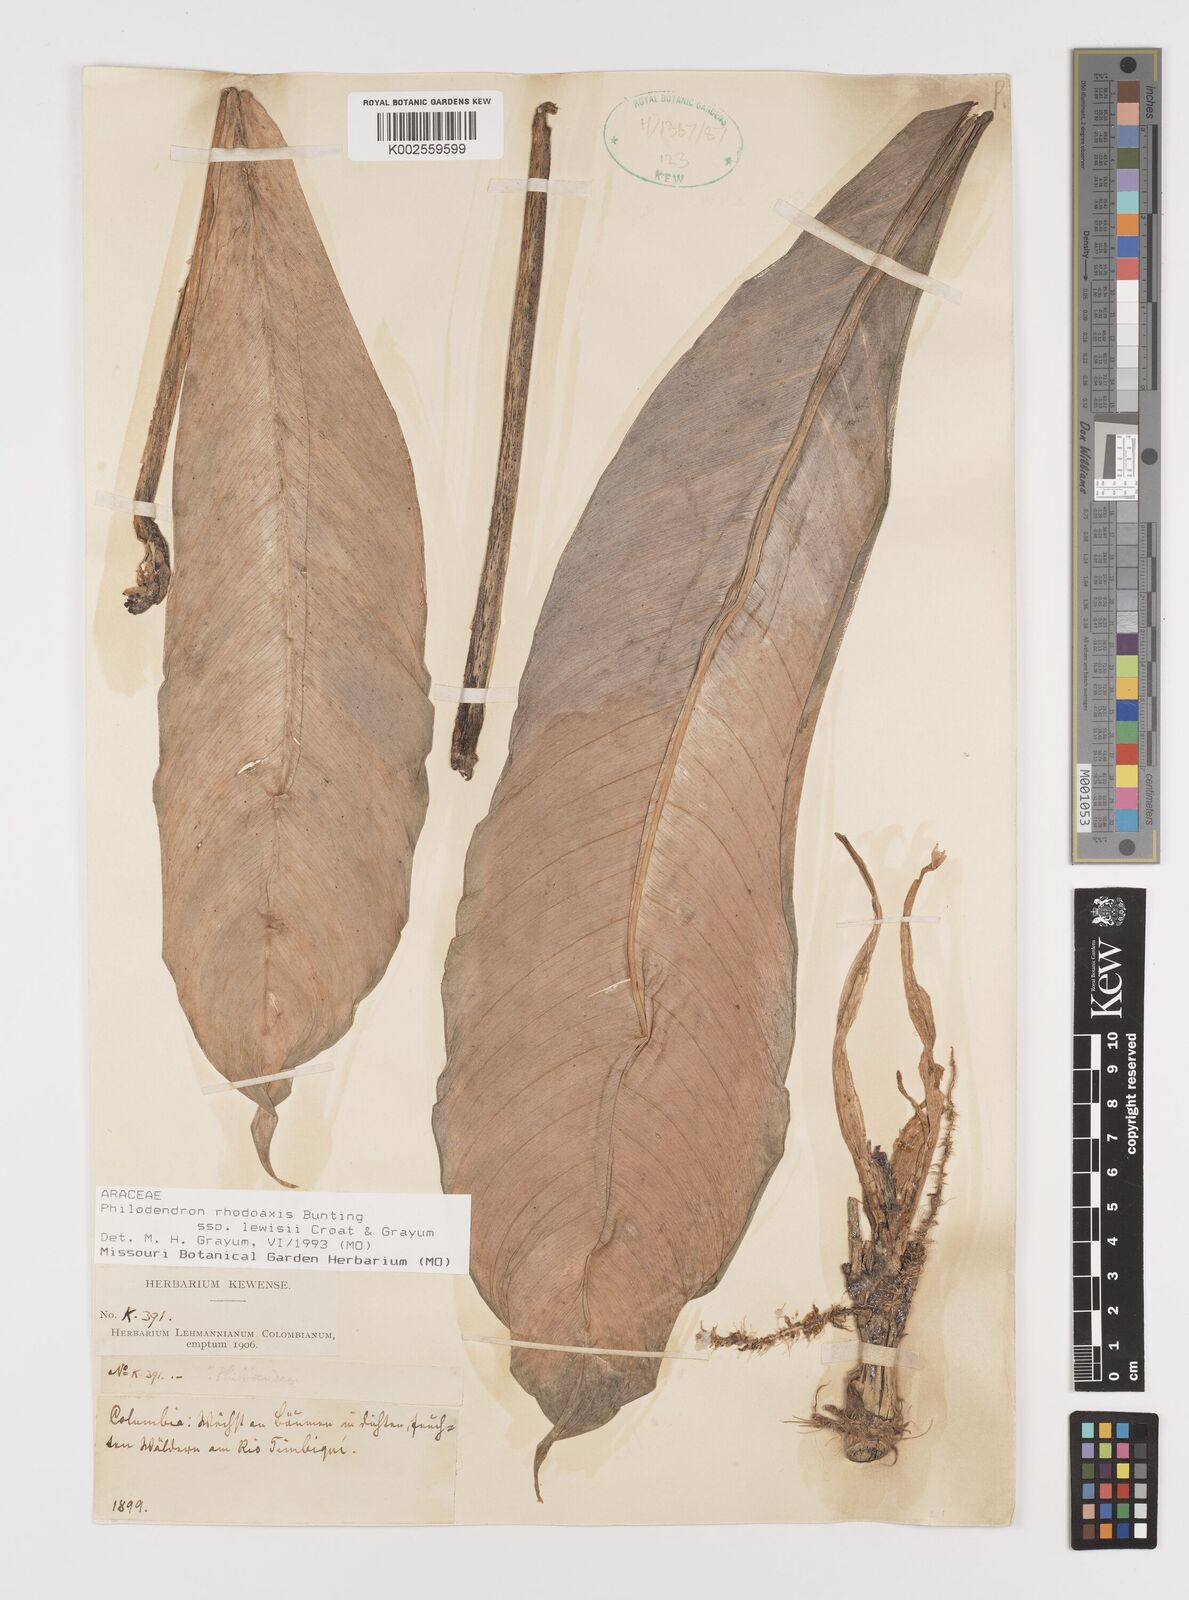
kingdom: Plantae
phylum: Tracheophyta
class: Liliopsida
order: Alismatales
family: Araceae
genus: Philodendron
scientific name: Philodendron rhodoaxis
